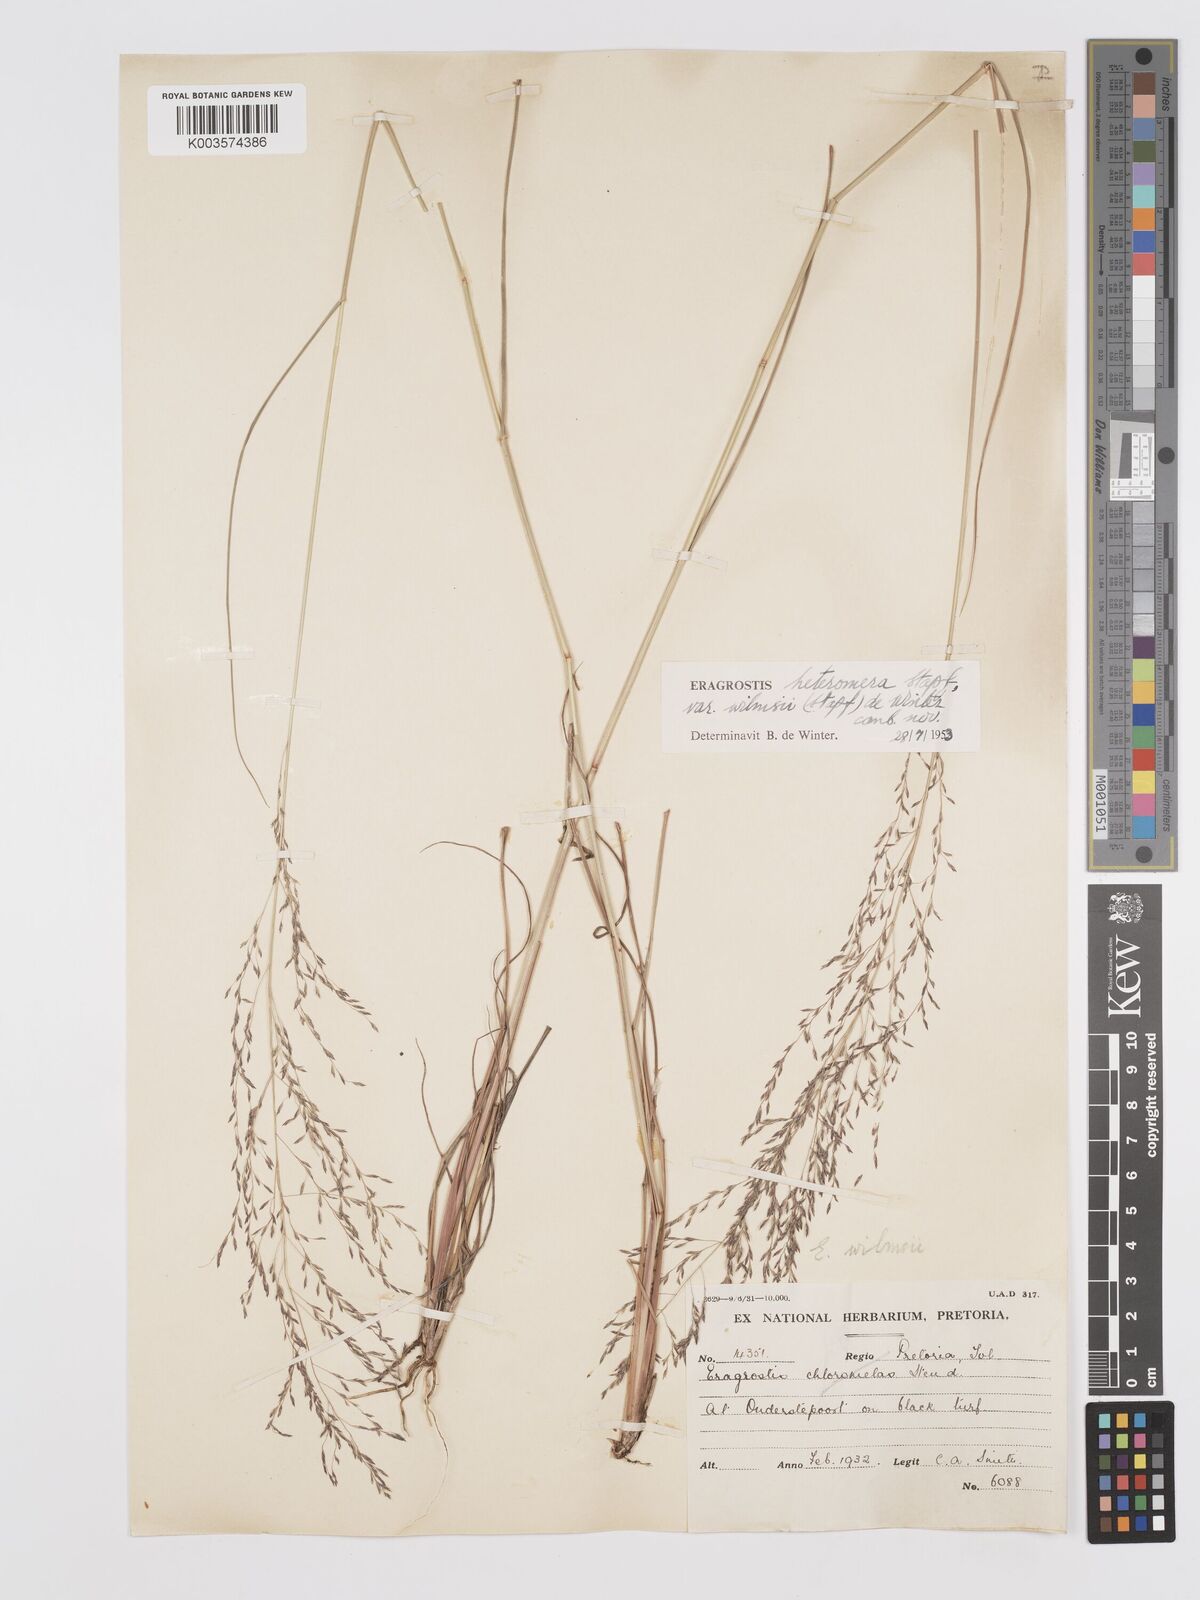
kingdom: Plantae
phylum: Tracheophyta
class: Liliopsida
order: Poales
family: Poaceae
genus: Eragrostis
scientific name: Eragrostis heteromera
